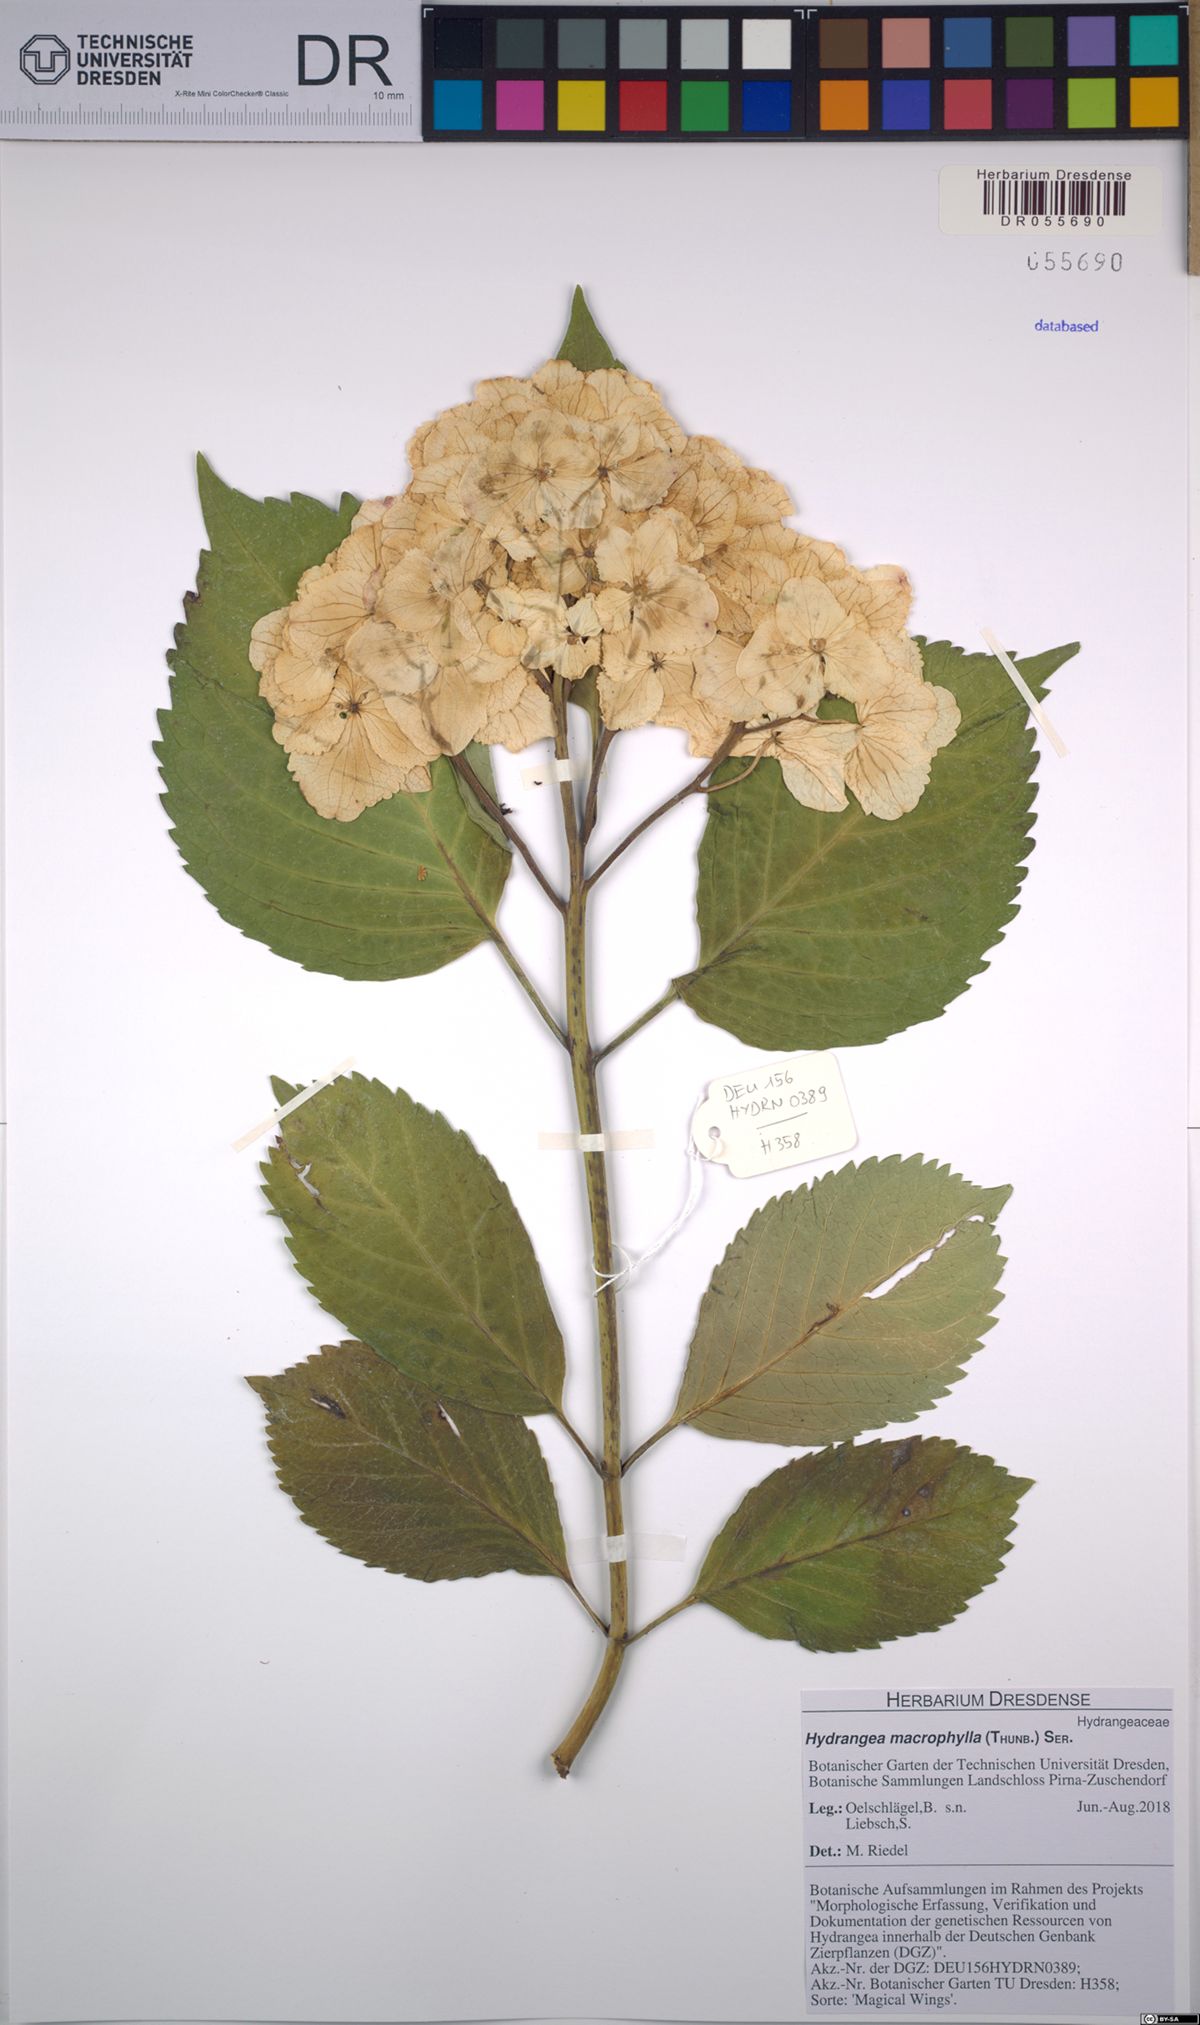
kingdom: Plantae
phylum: Tracheophyta
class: Magnoliopsida
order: Cornales
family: Hydrangeaceae
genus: Hydrangea
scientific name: Hydrangea macrophylla
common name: Hydrangea
